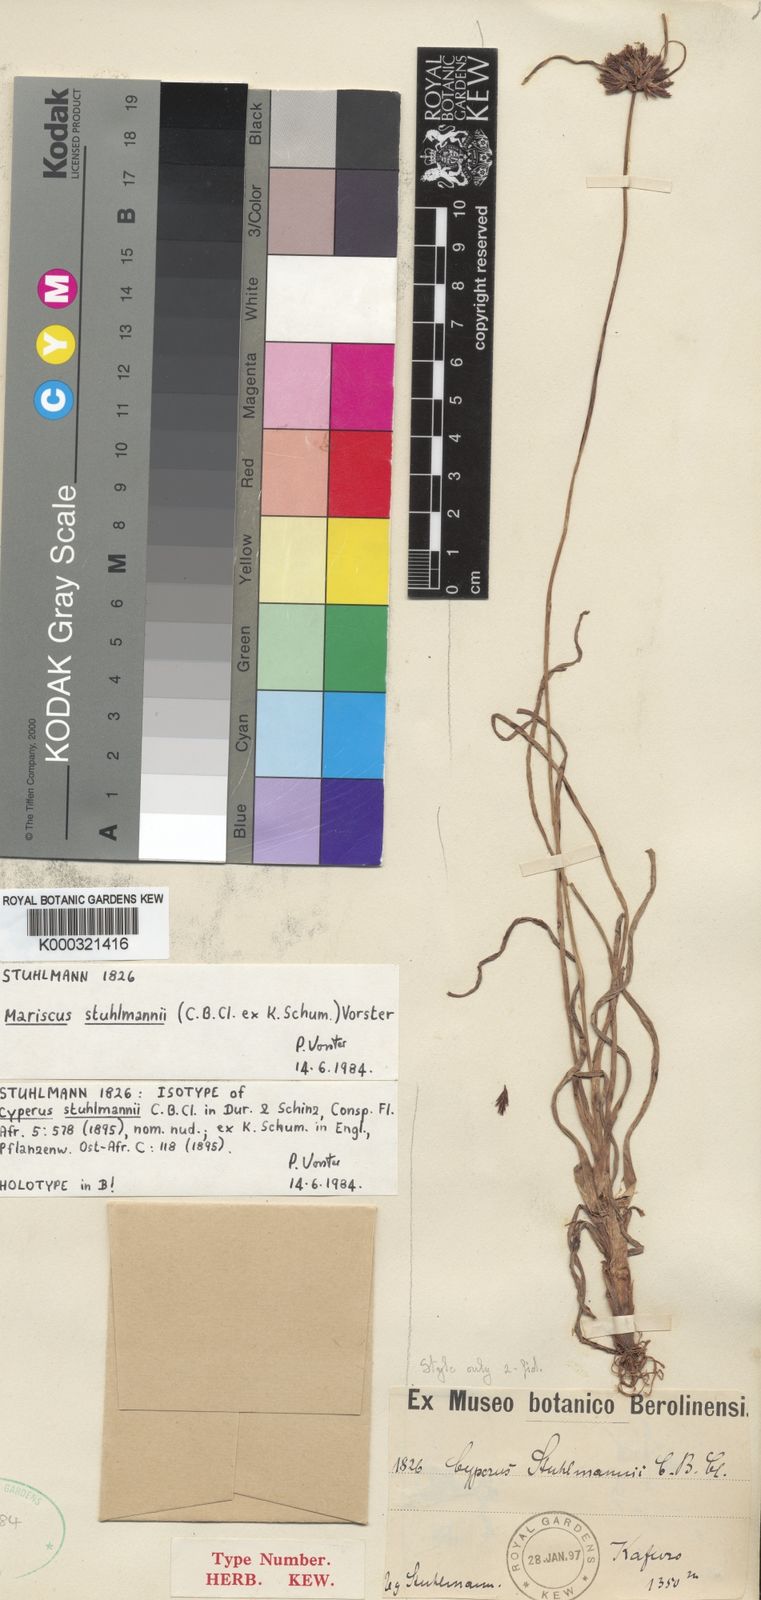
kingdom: Plantae
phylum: Tracheophyta
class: Liliopsida
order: Poales
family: Cyperaceae
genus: Cyperus
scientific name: Cyperus
